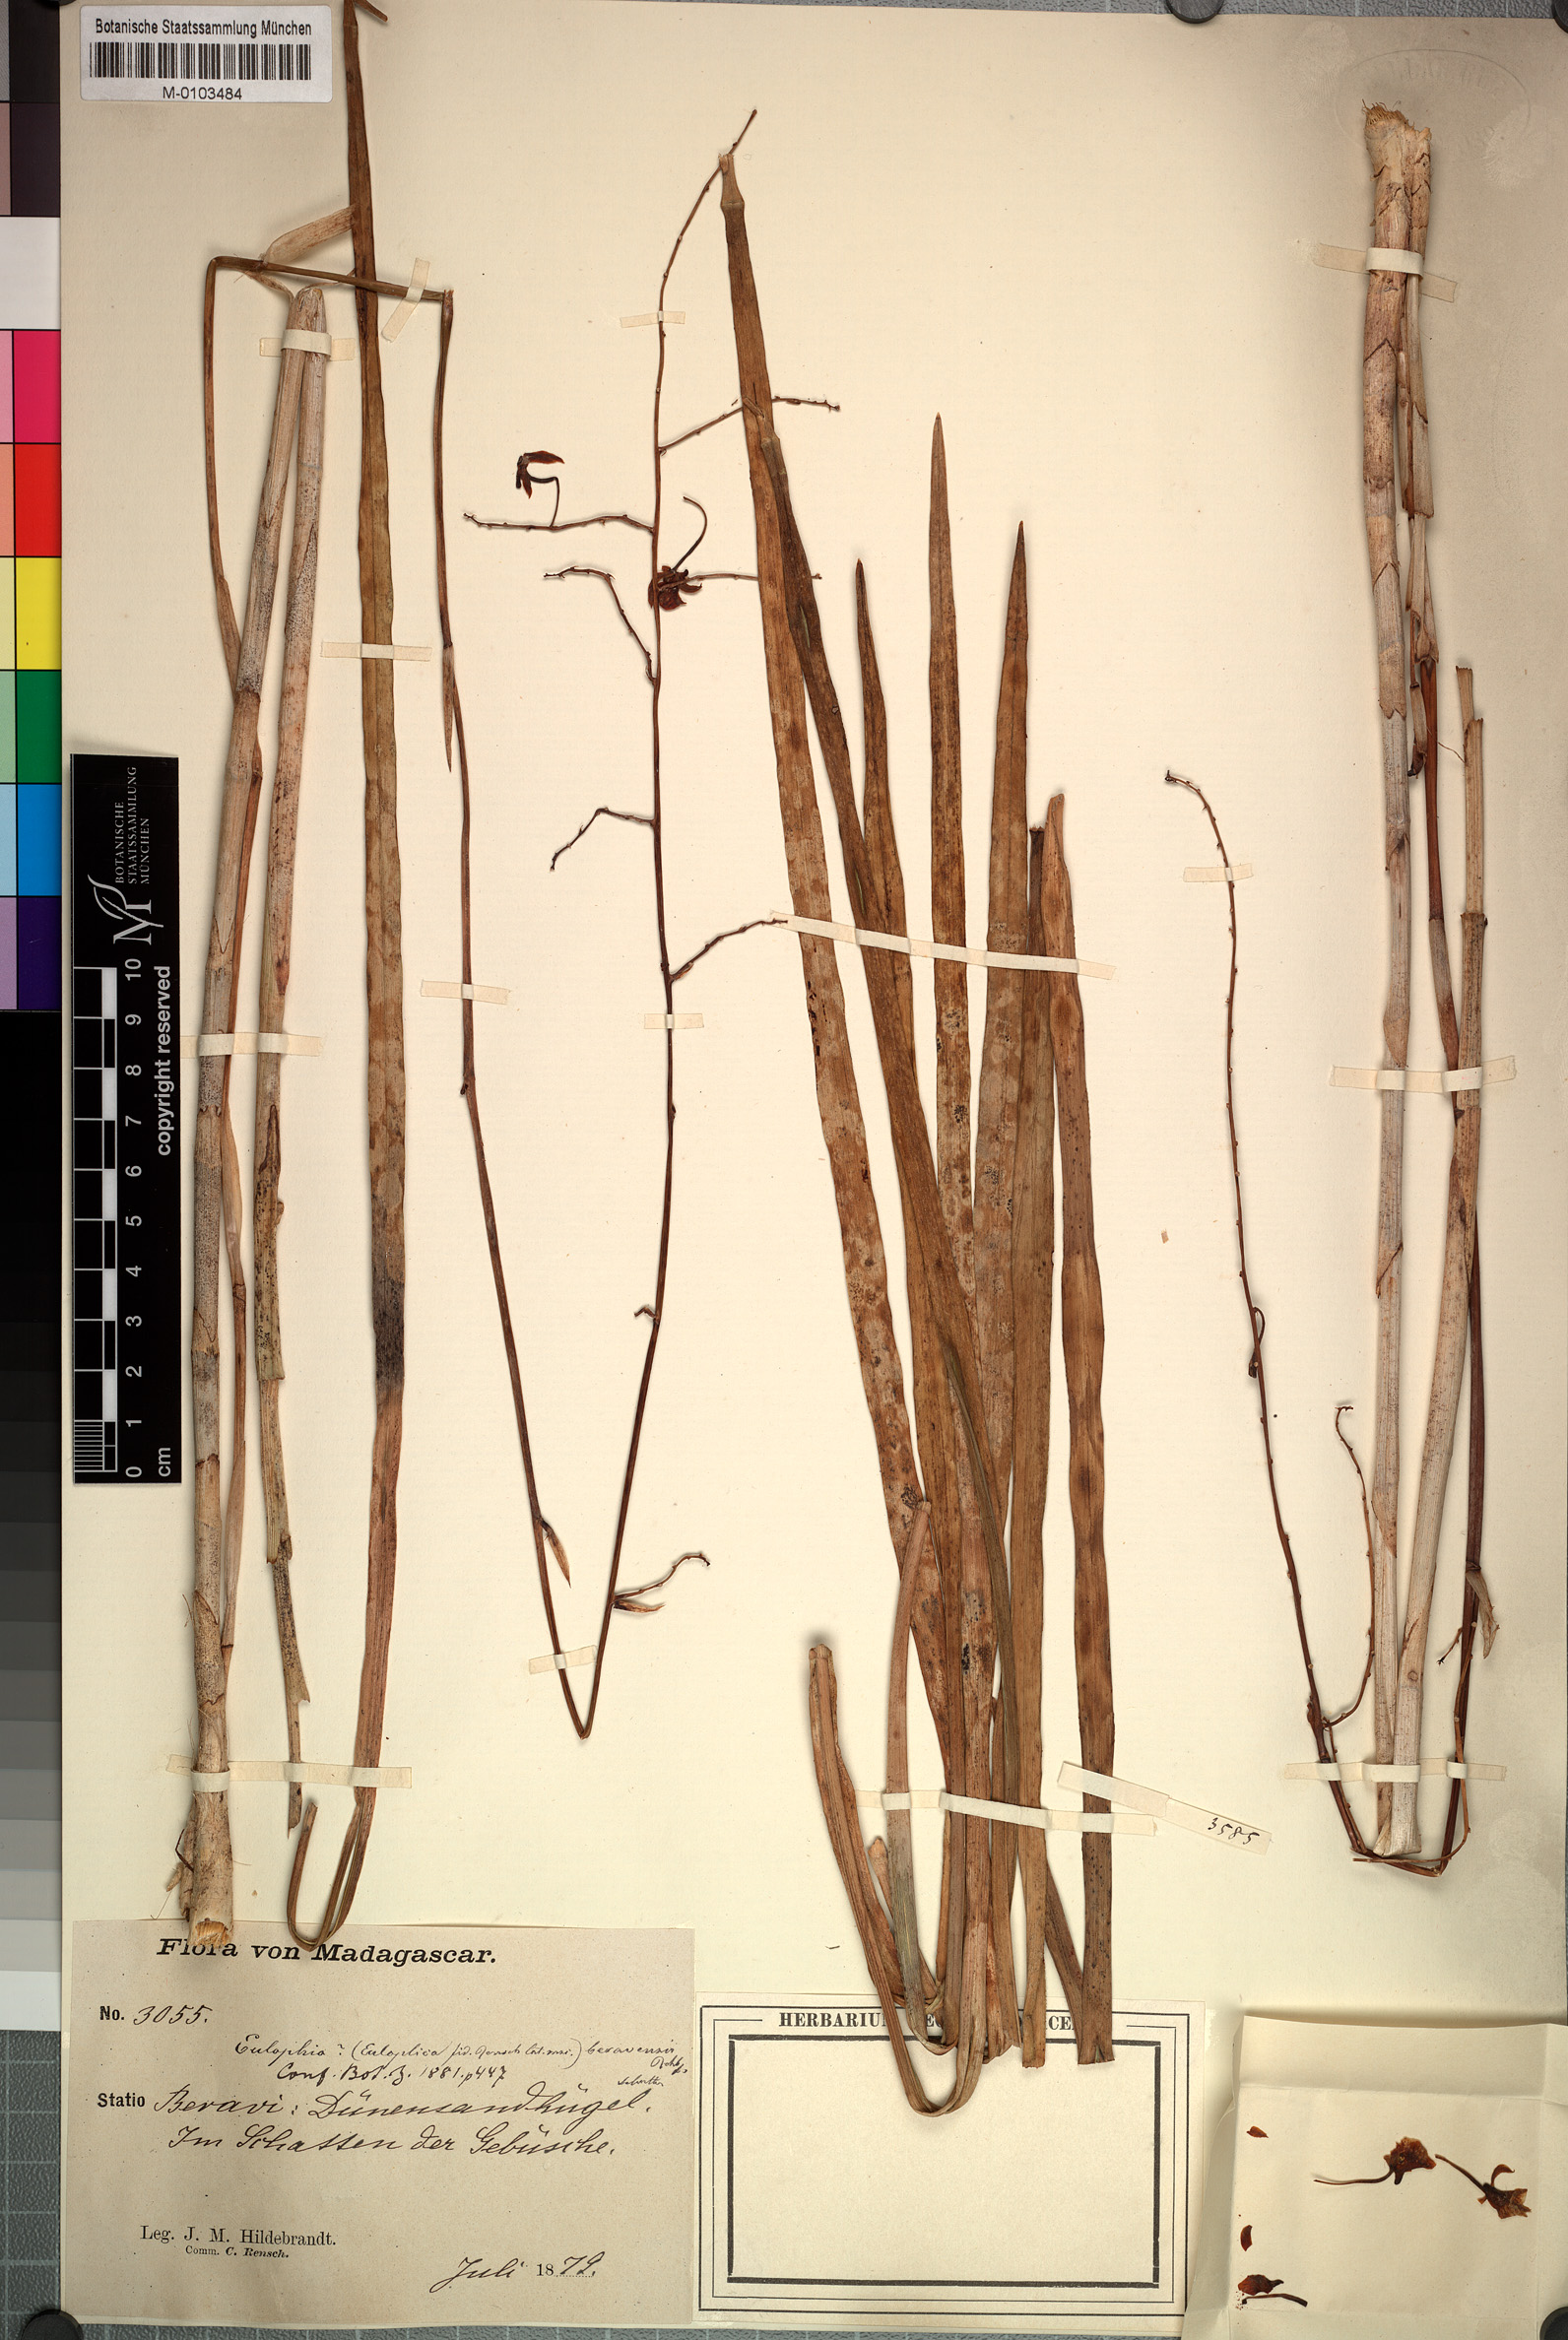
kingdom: Plantae
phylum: Tracheophyta
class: Liliopsida
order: Asparagales
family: Orchidaceae
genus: Eulophia
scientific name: Eulophia beravensis
